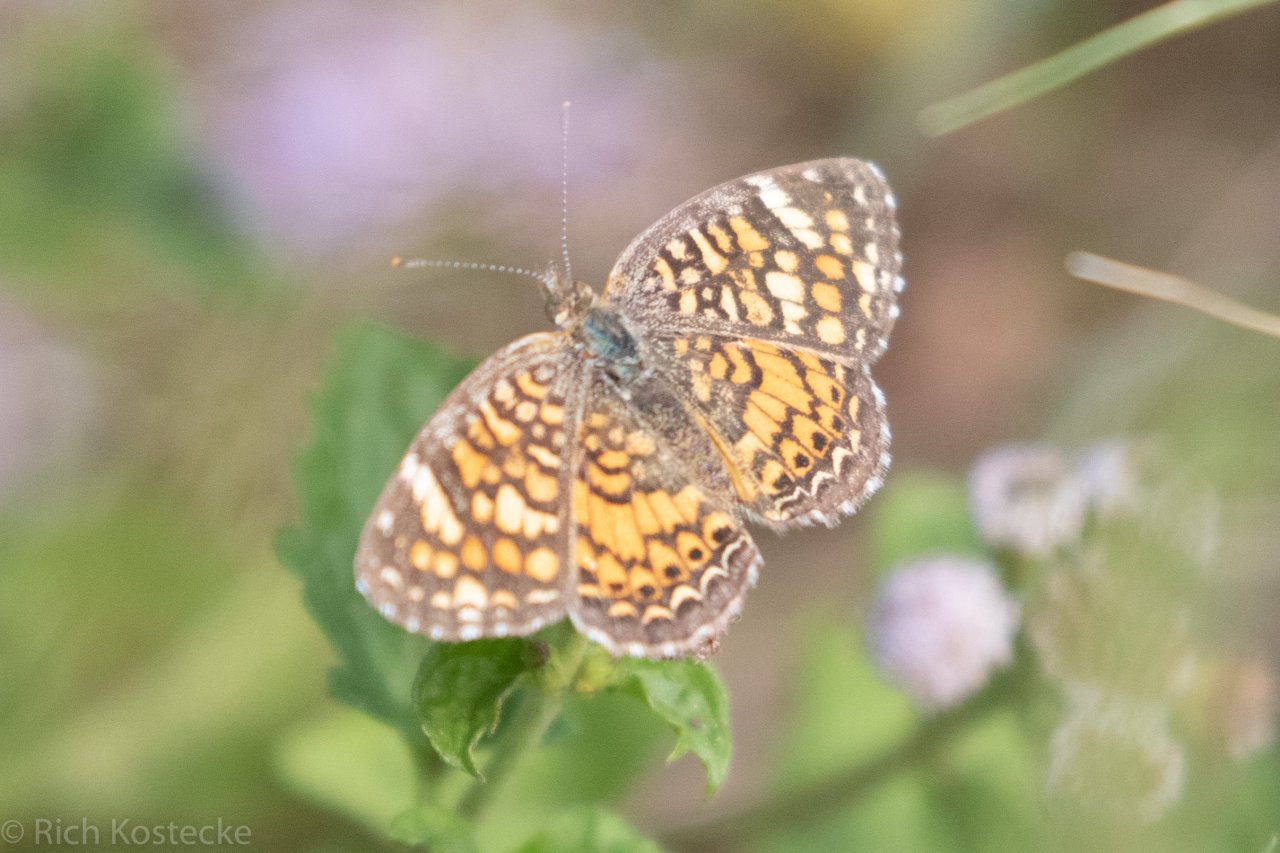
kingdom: Animalia
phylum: Arthropoda
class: Insecta
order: Lepidoptera
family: Nymphalidae
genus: Phyciodes
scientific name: Phyciodes vesta
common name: Vesta Crescent
